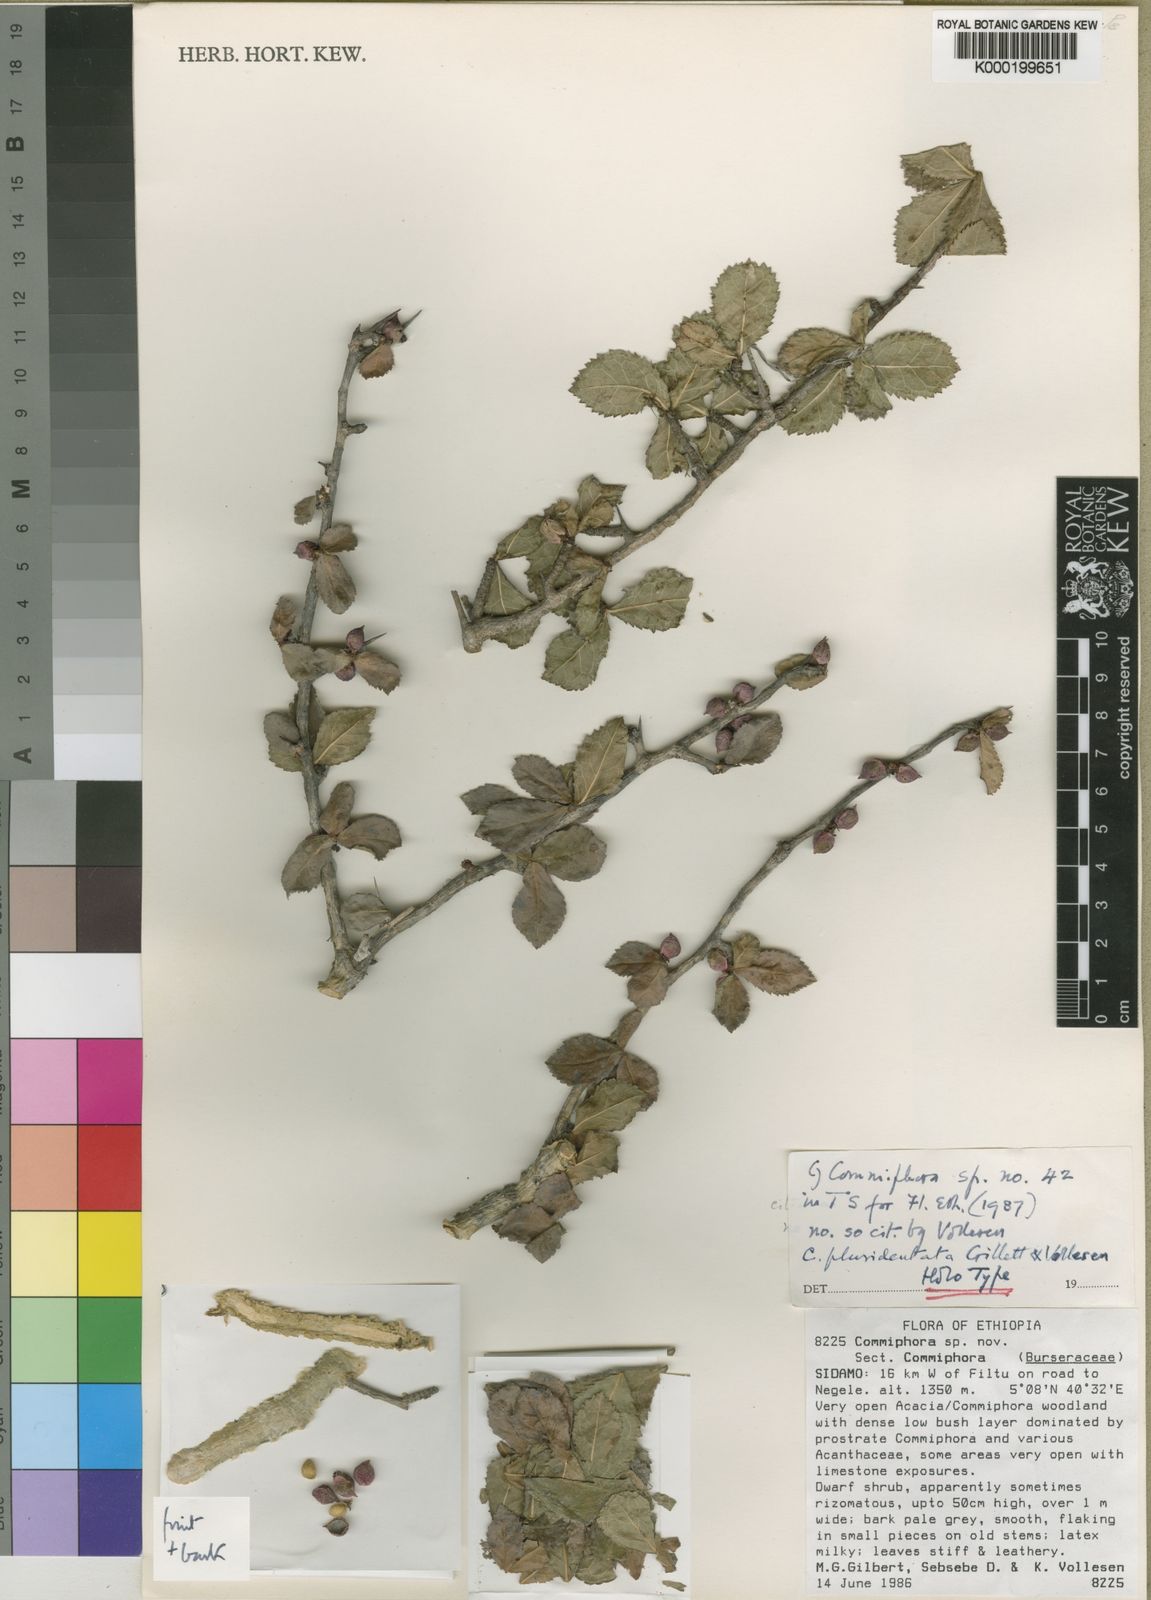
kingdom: Plantae
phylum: Tracheophyta
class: Magnoliopsida
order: Sapindales
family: Burseraceae
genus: Commiphora
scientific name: Commiphora
